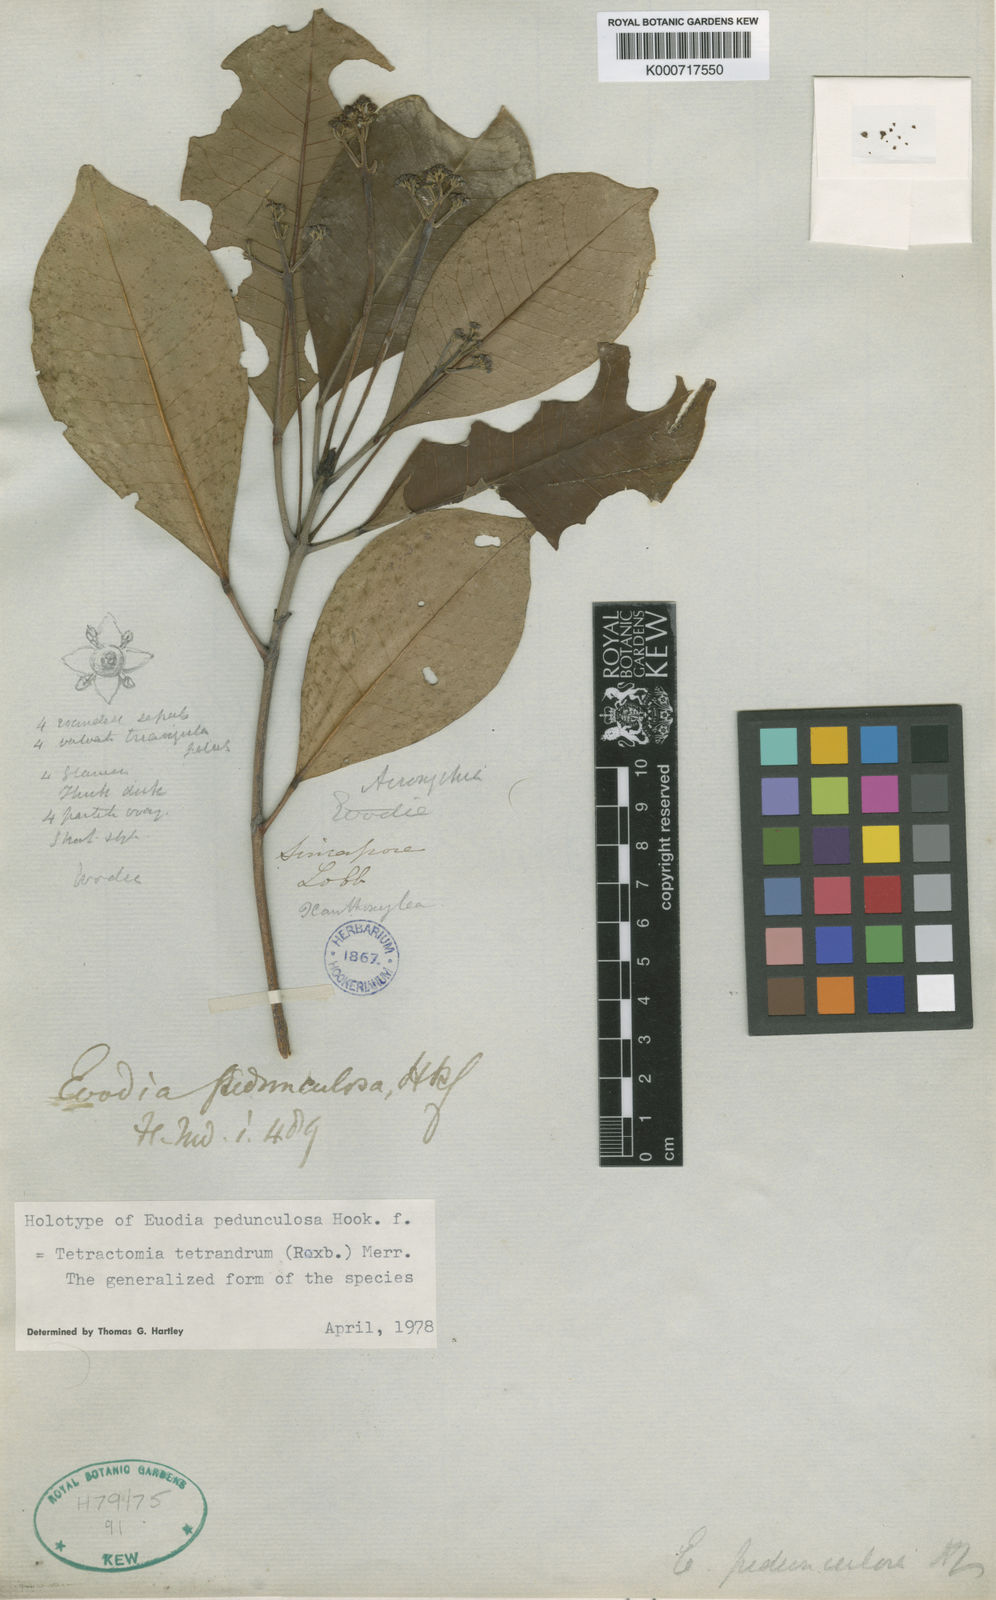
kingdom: Plantae
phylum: Tracheophyta
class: Magnoliopsida
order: Sapindales
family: Rutaceae
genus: Tetractomia
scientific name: Tetractomia tetrandra
